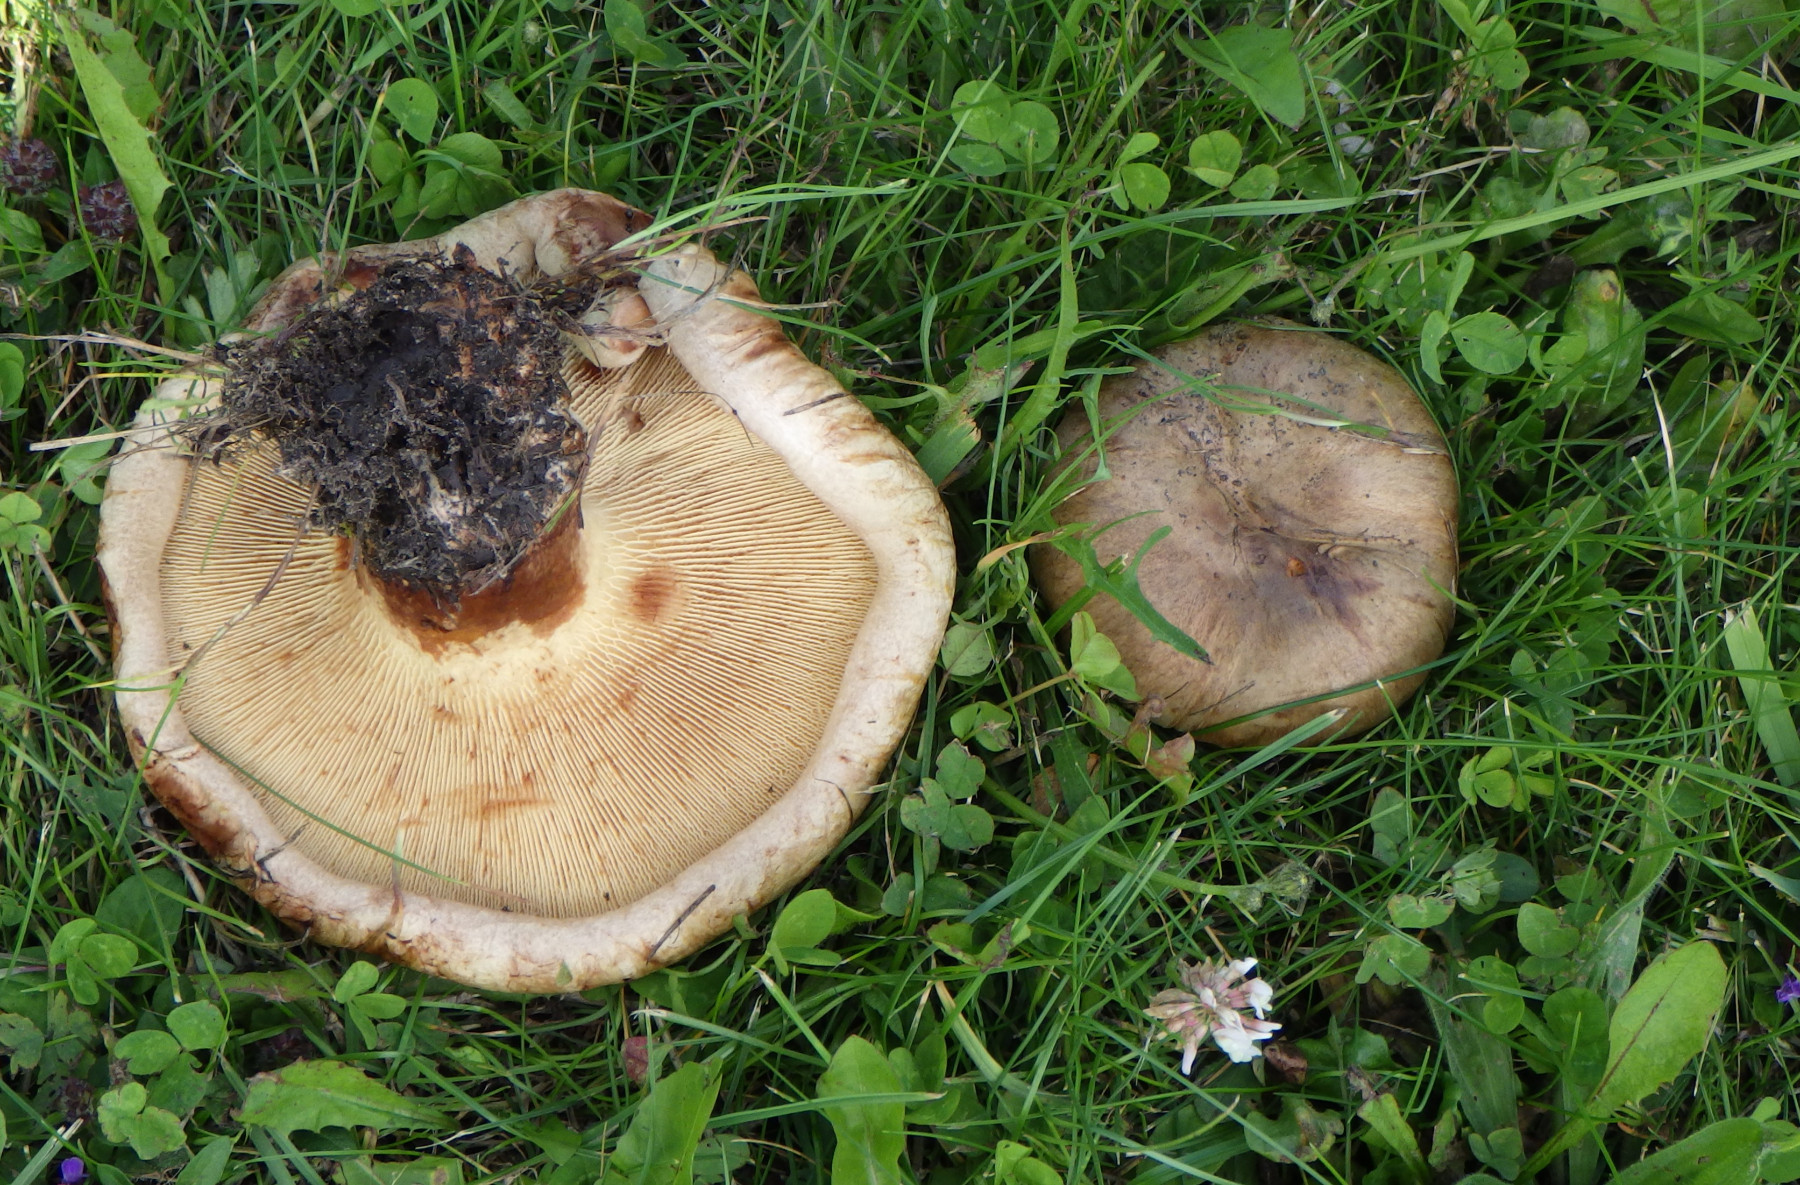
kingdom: Fungi
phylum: Basidiomycota
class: Agaricomycetes
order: Boletales
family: Paxillaceae
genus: Paxillus
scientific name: Paxillus obscurisporus
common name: mahognisporet netbladhat
